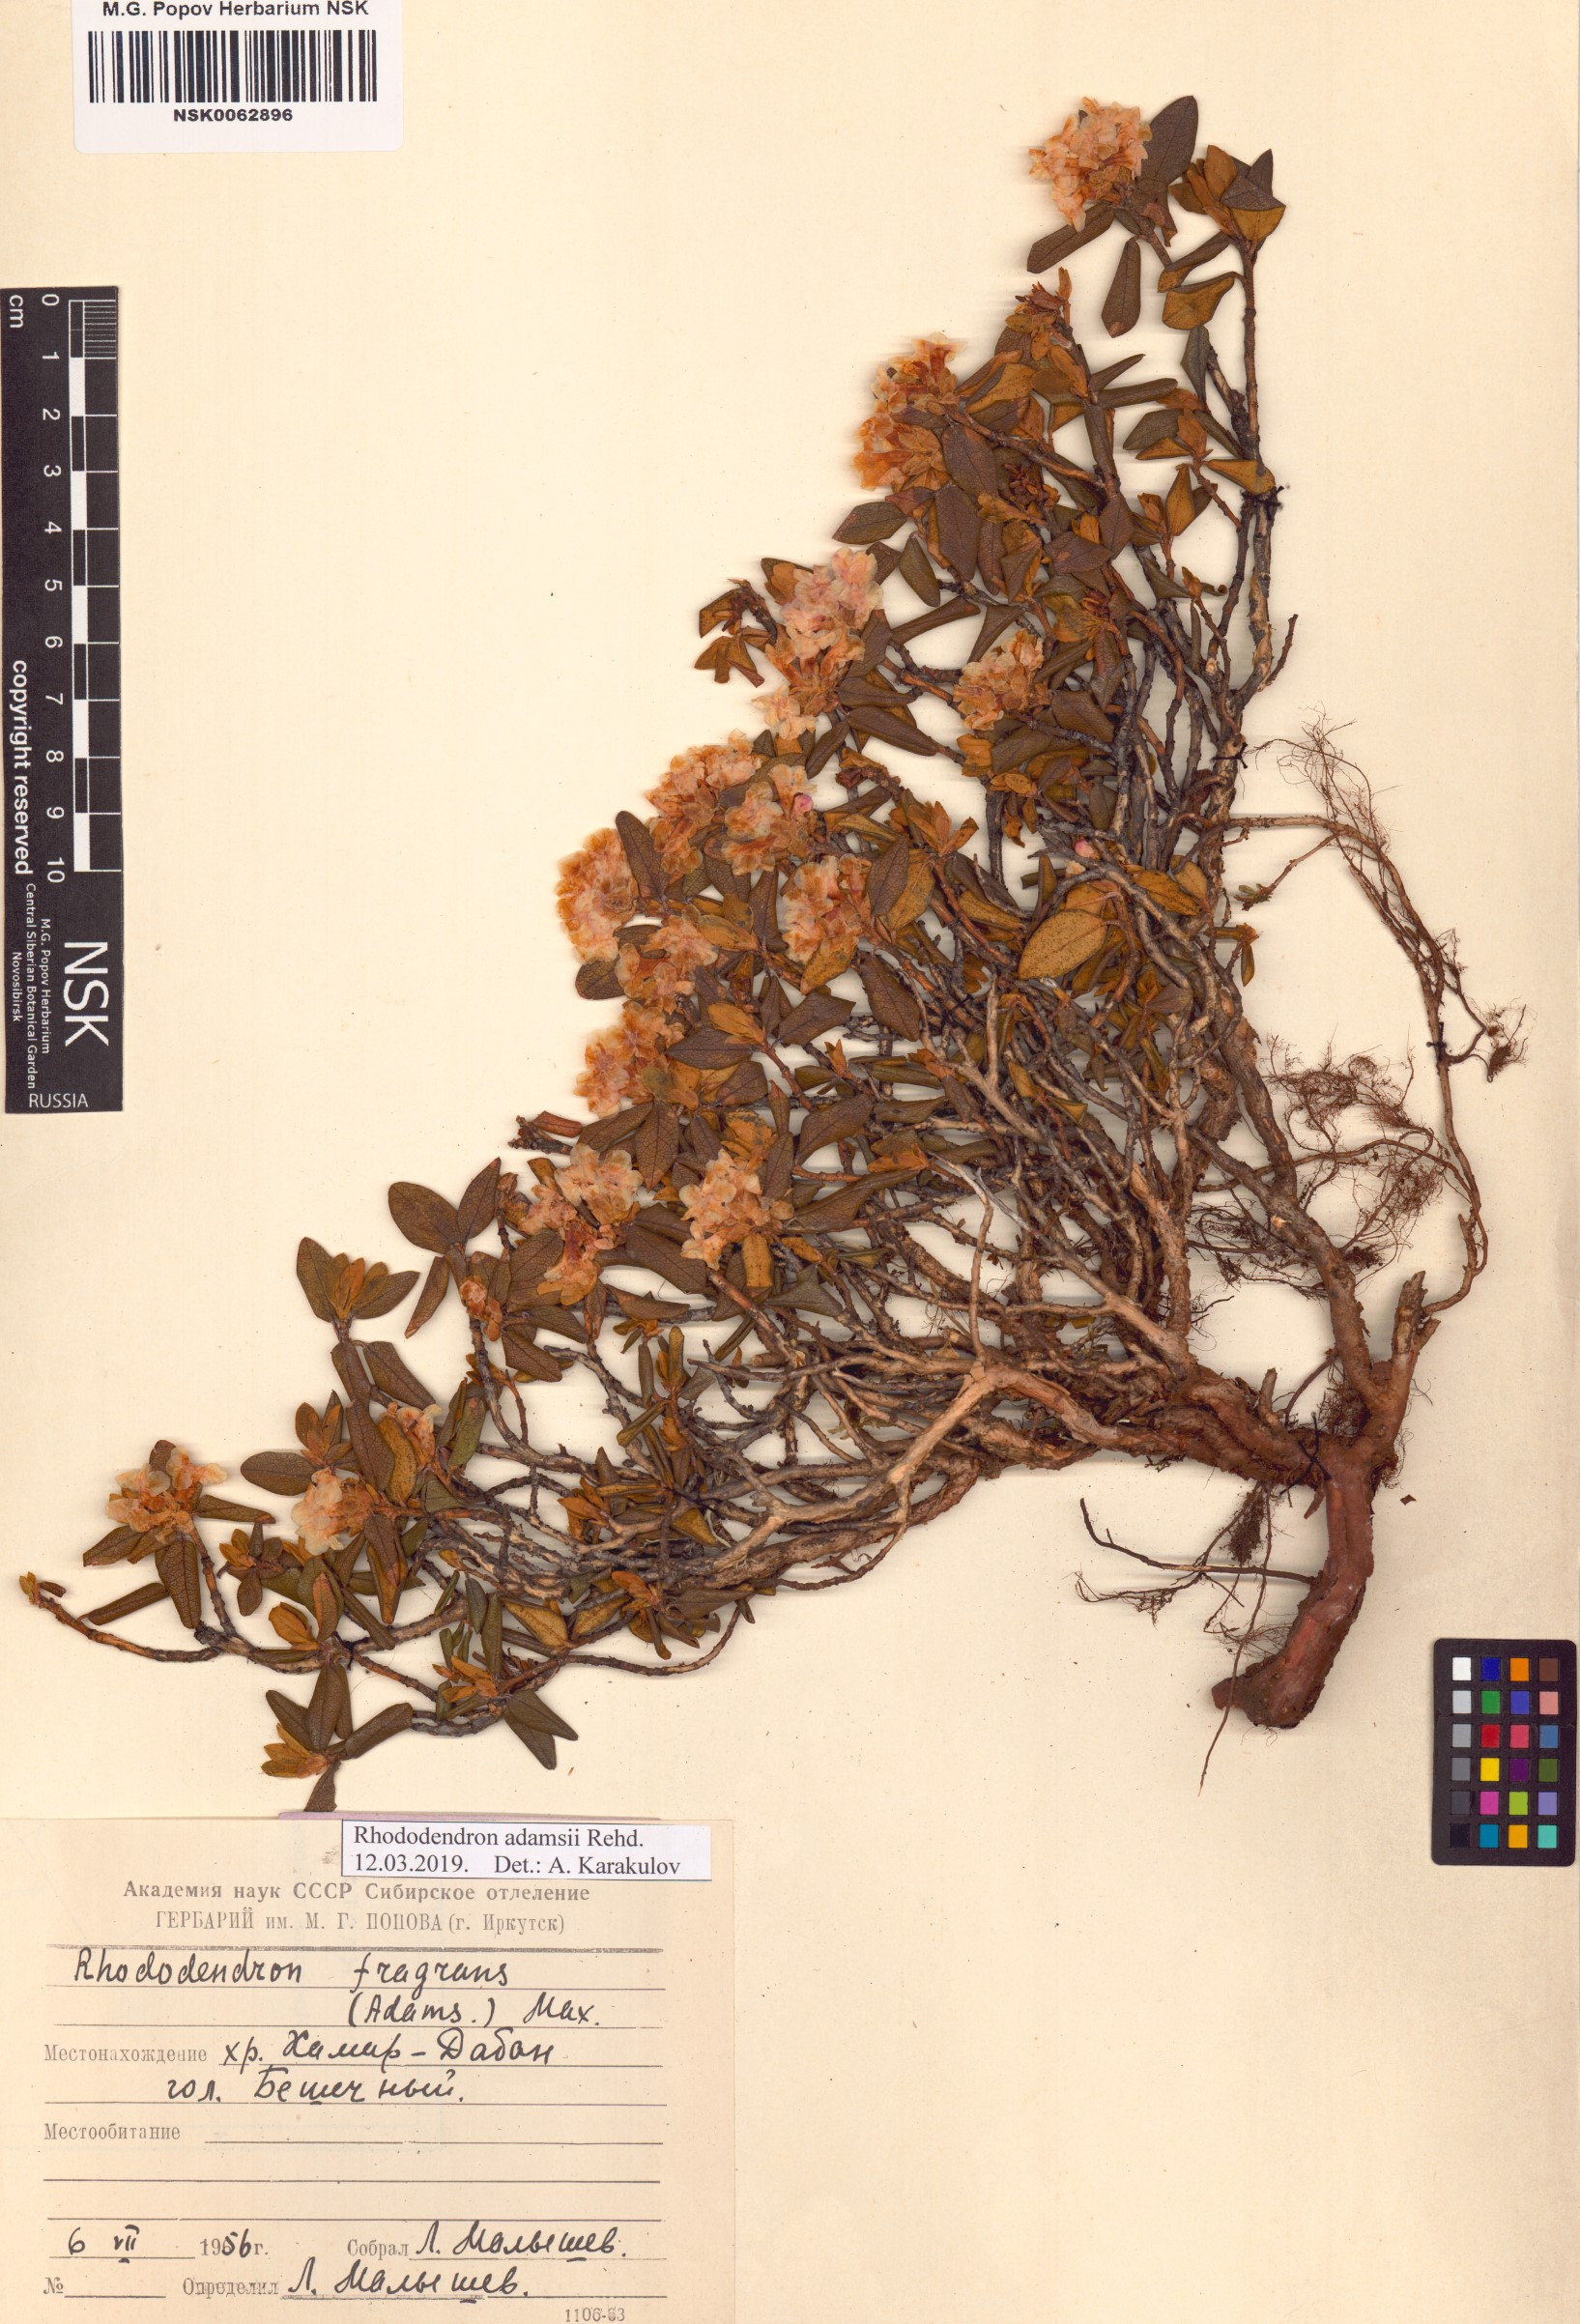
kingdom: Plantae
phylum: Tracheophyta
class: Magnoliopsida
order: Ericales
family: Ericaceae
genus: Rhododendron
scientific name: Rhododendron adamsii
